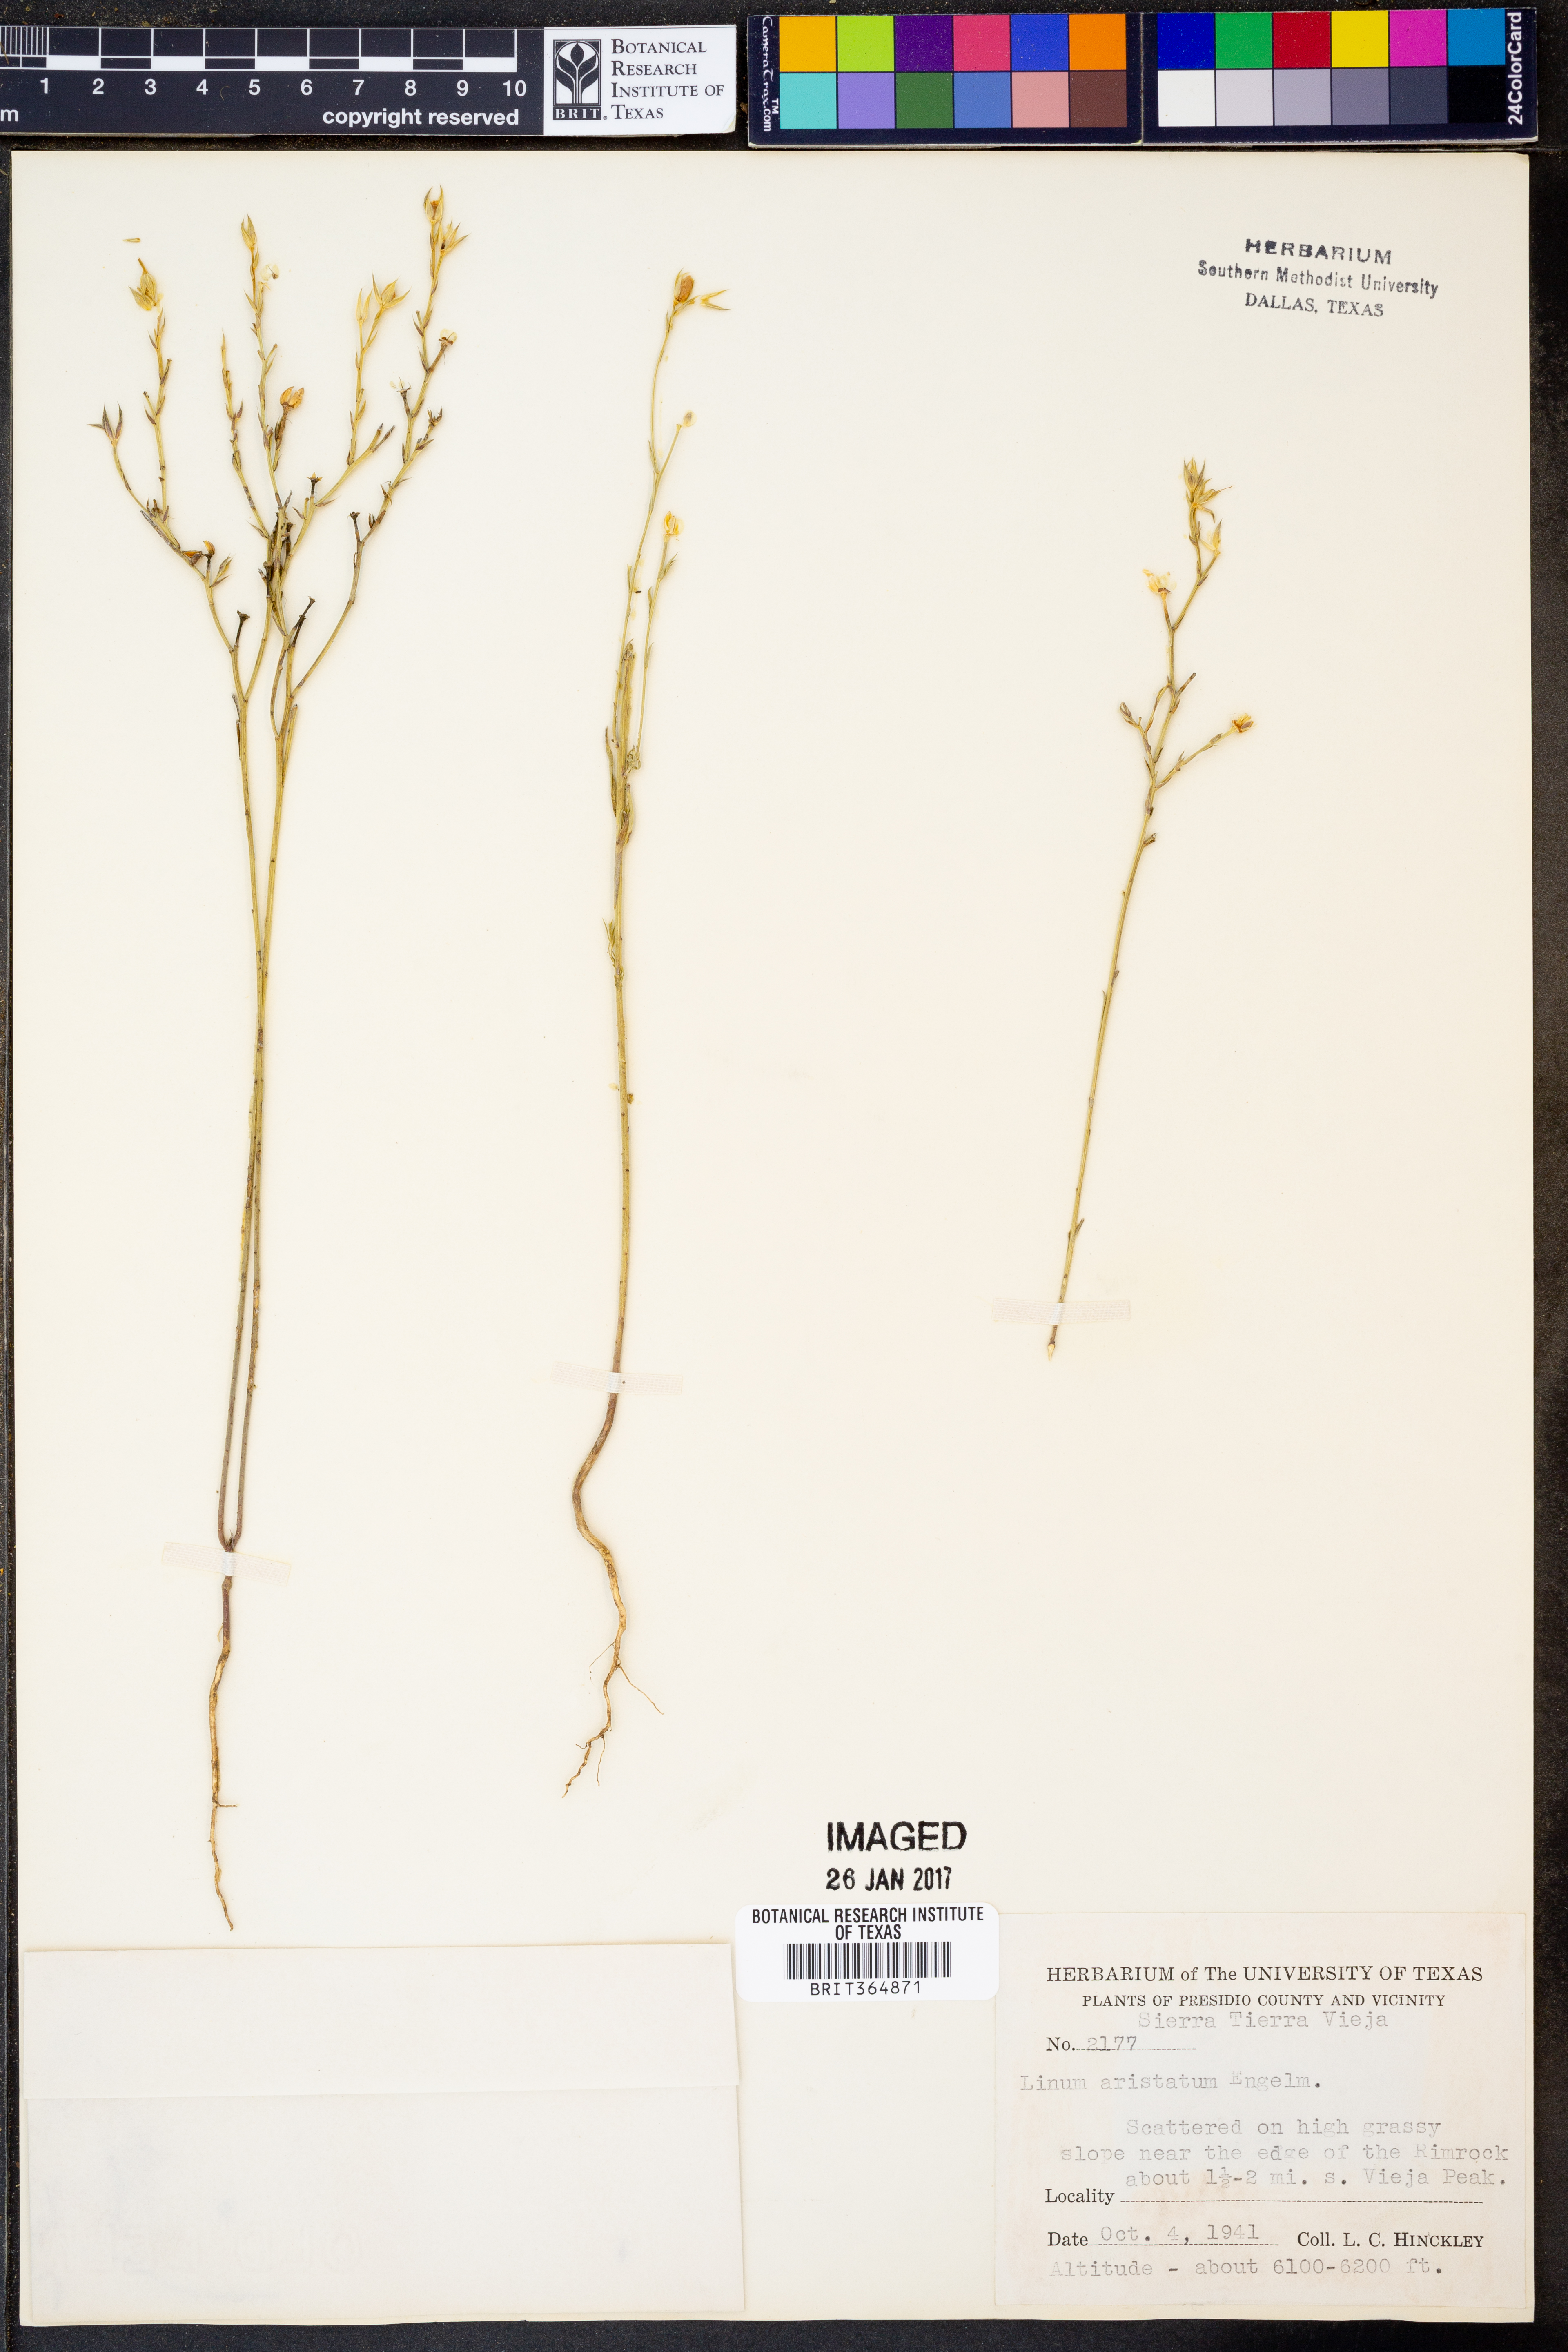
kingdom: Plantae
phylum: Tracheophyta
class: Magnoliopsida
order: Malpighiales
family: Linaceae
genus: Linum
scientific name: Linum aristatum
